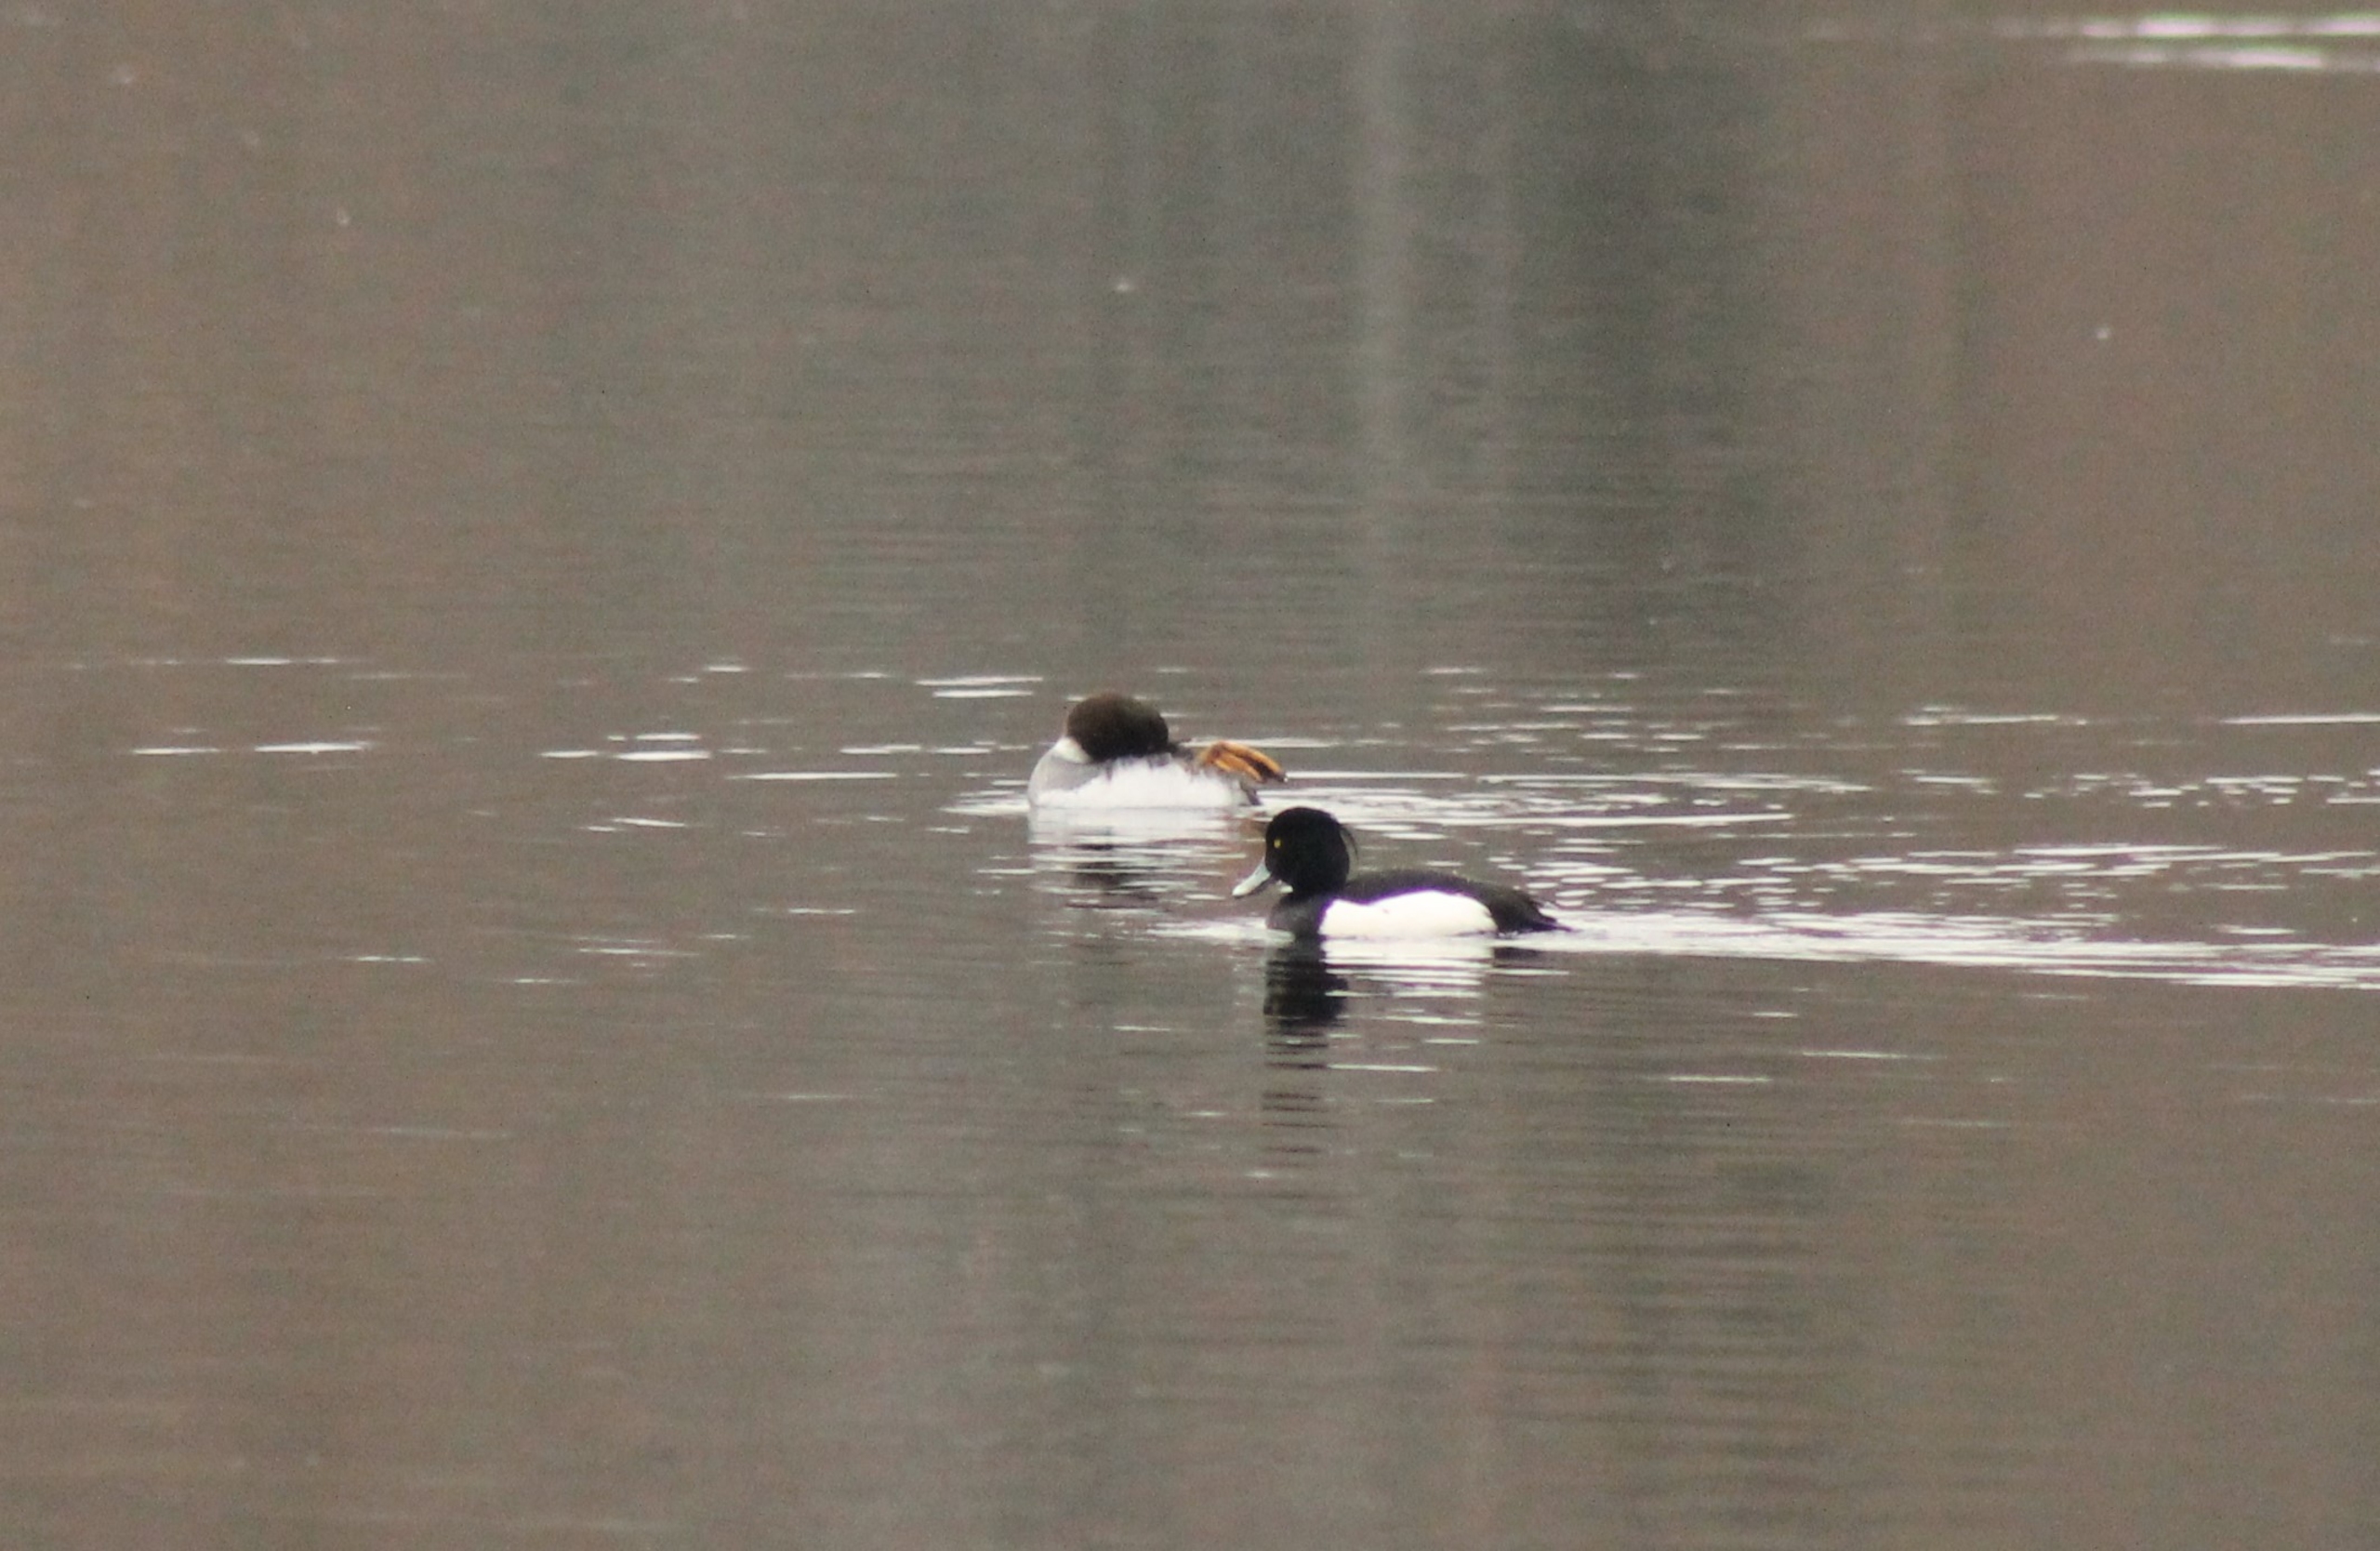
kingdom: Animalia
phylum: Chordata
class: Aves
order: Anseriformes
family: Anatidae
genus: Aythya
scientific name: Aythya fuligula
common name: Troldand
